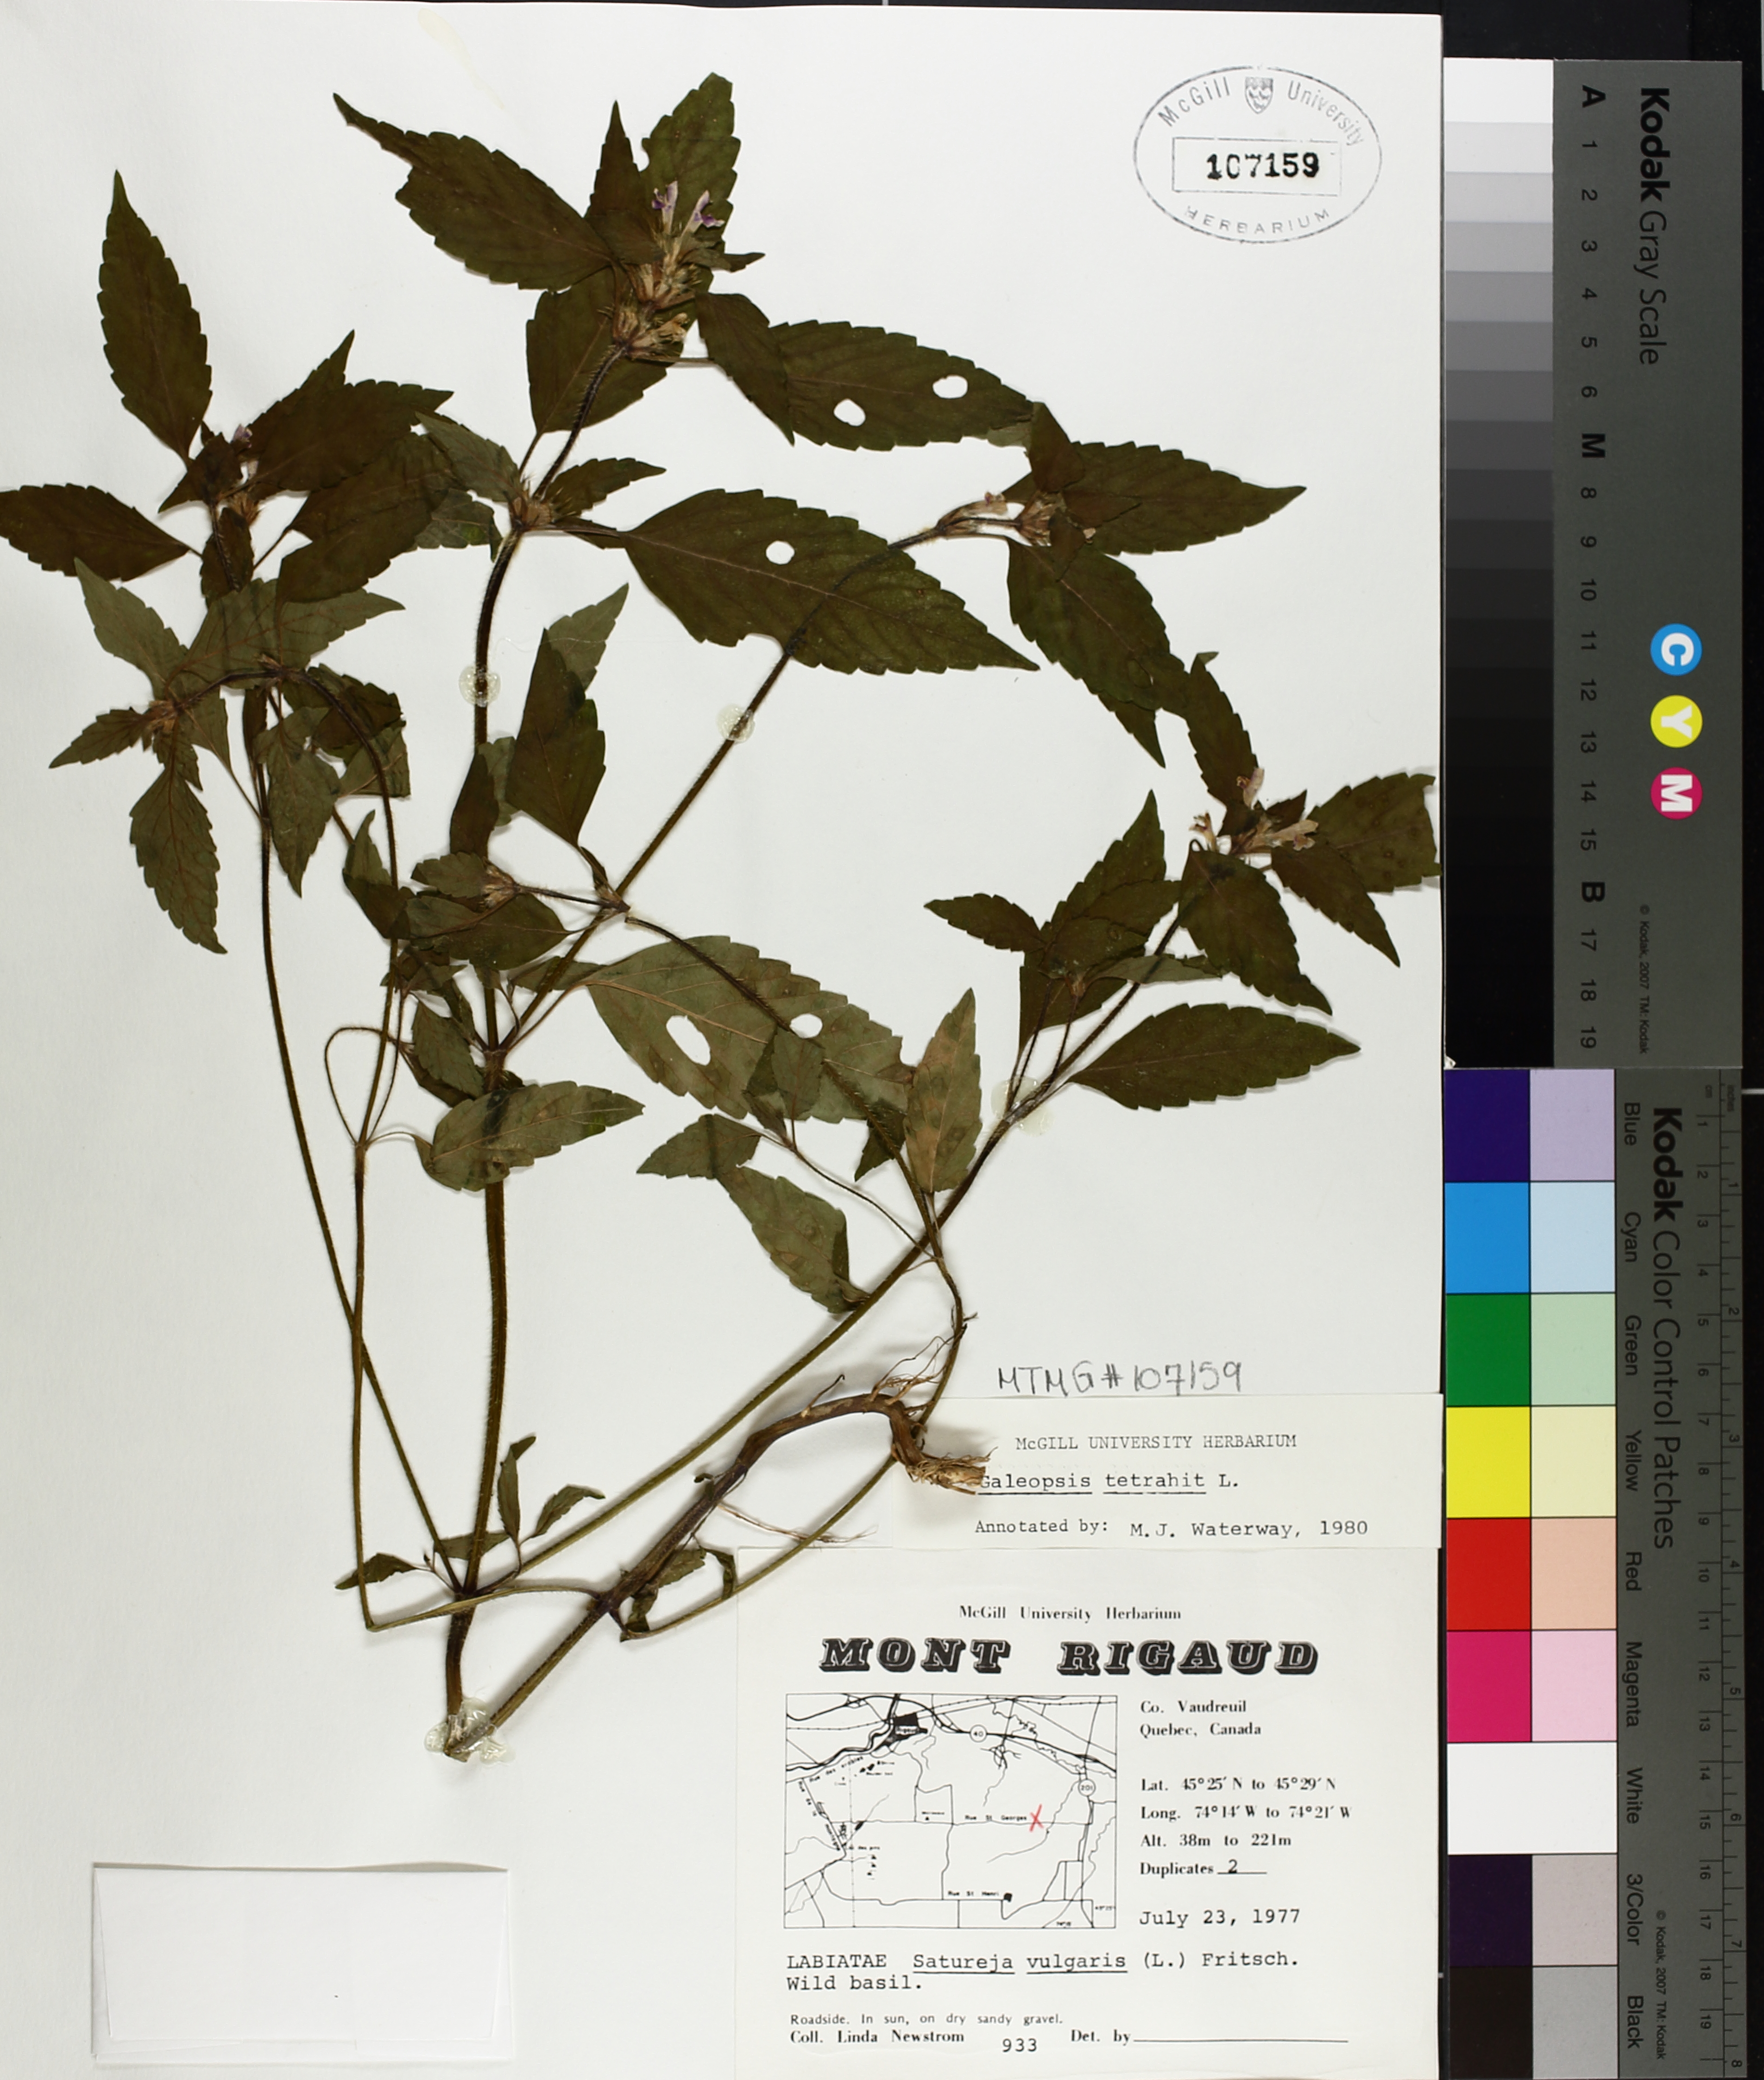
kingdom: Plantae
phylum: Tracheophyta
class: Magnoliopsida
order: Lamiales
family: Lamiaceae
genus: Galeopsis
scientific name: Galeopsis tetrahit
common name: Common hemp-nettle
